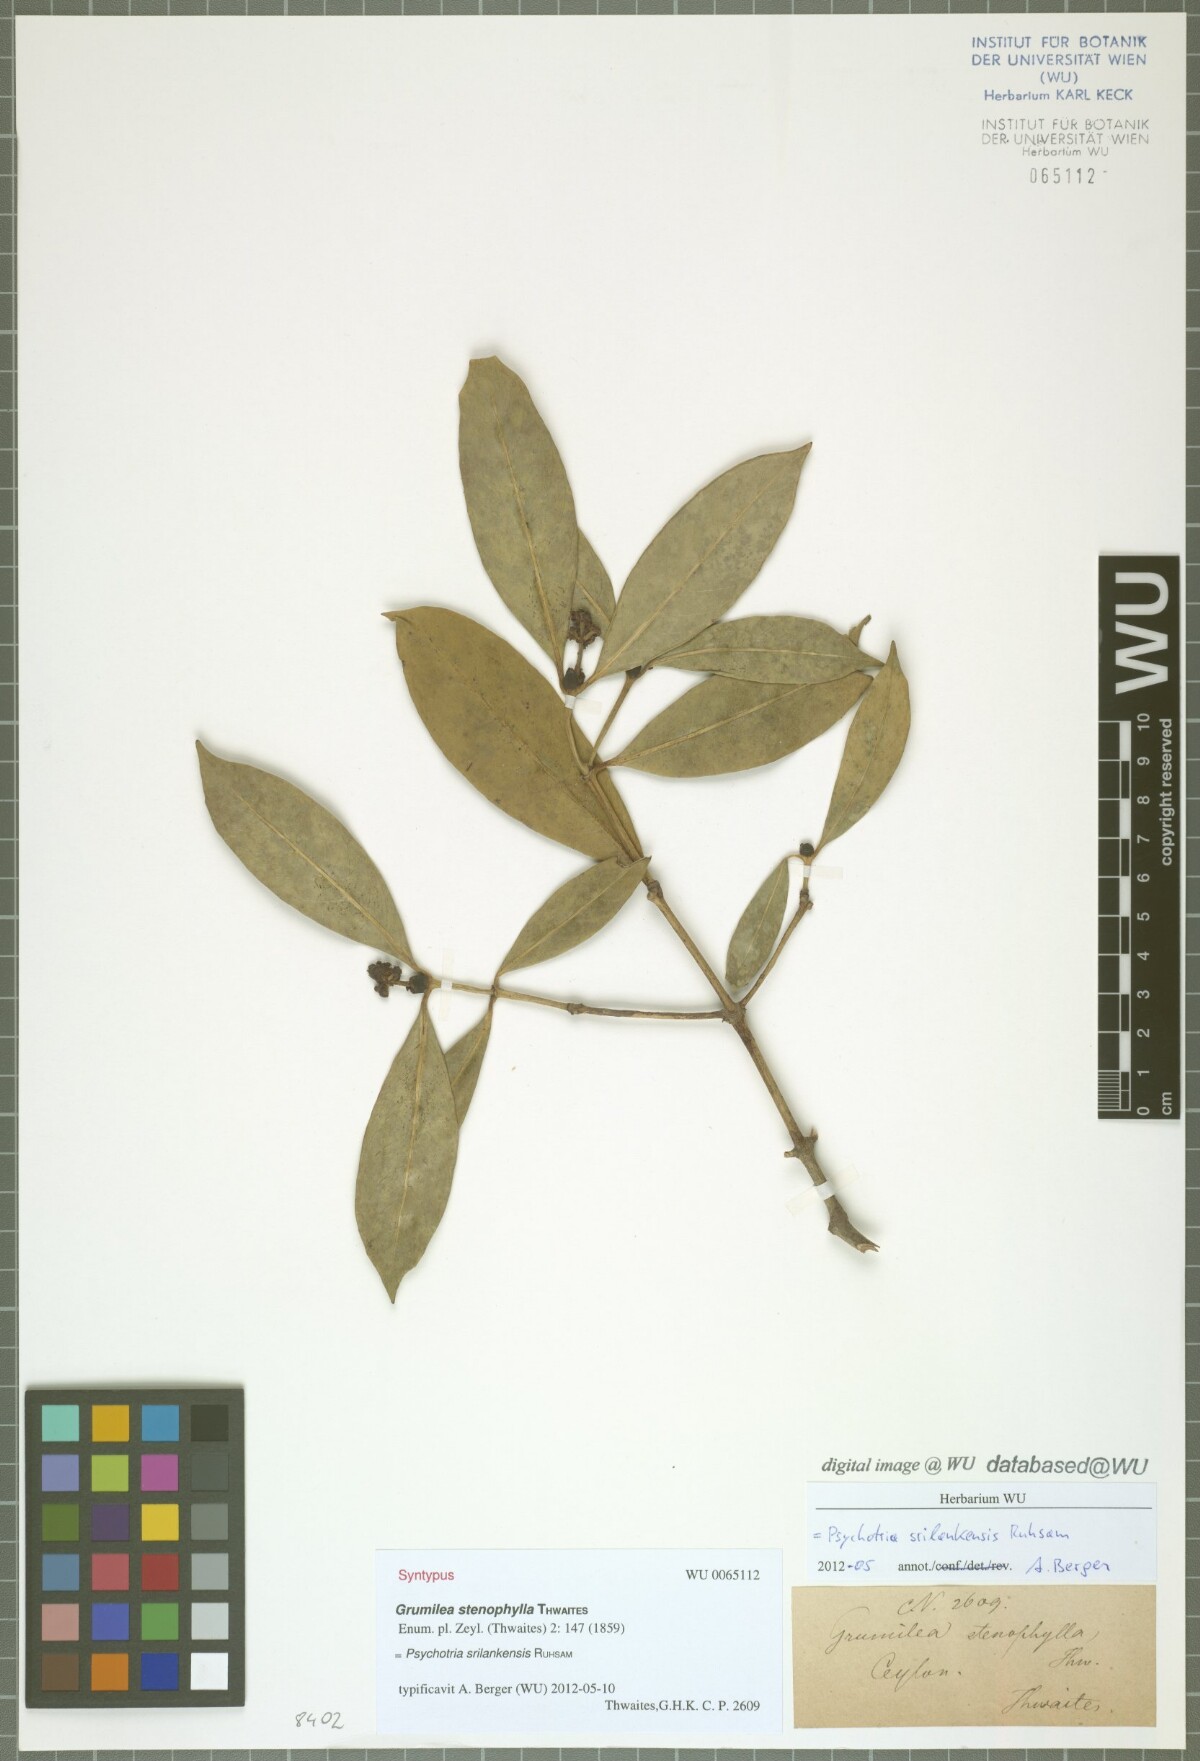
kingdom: Plantae
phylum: Tracheophyta
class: Magnoliopsida
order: Gentianales
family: Rubiaceae
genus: Psychotria
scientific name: Psychotria srilankensis
